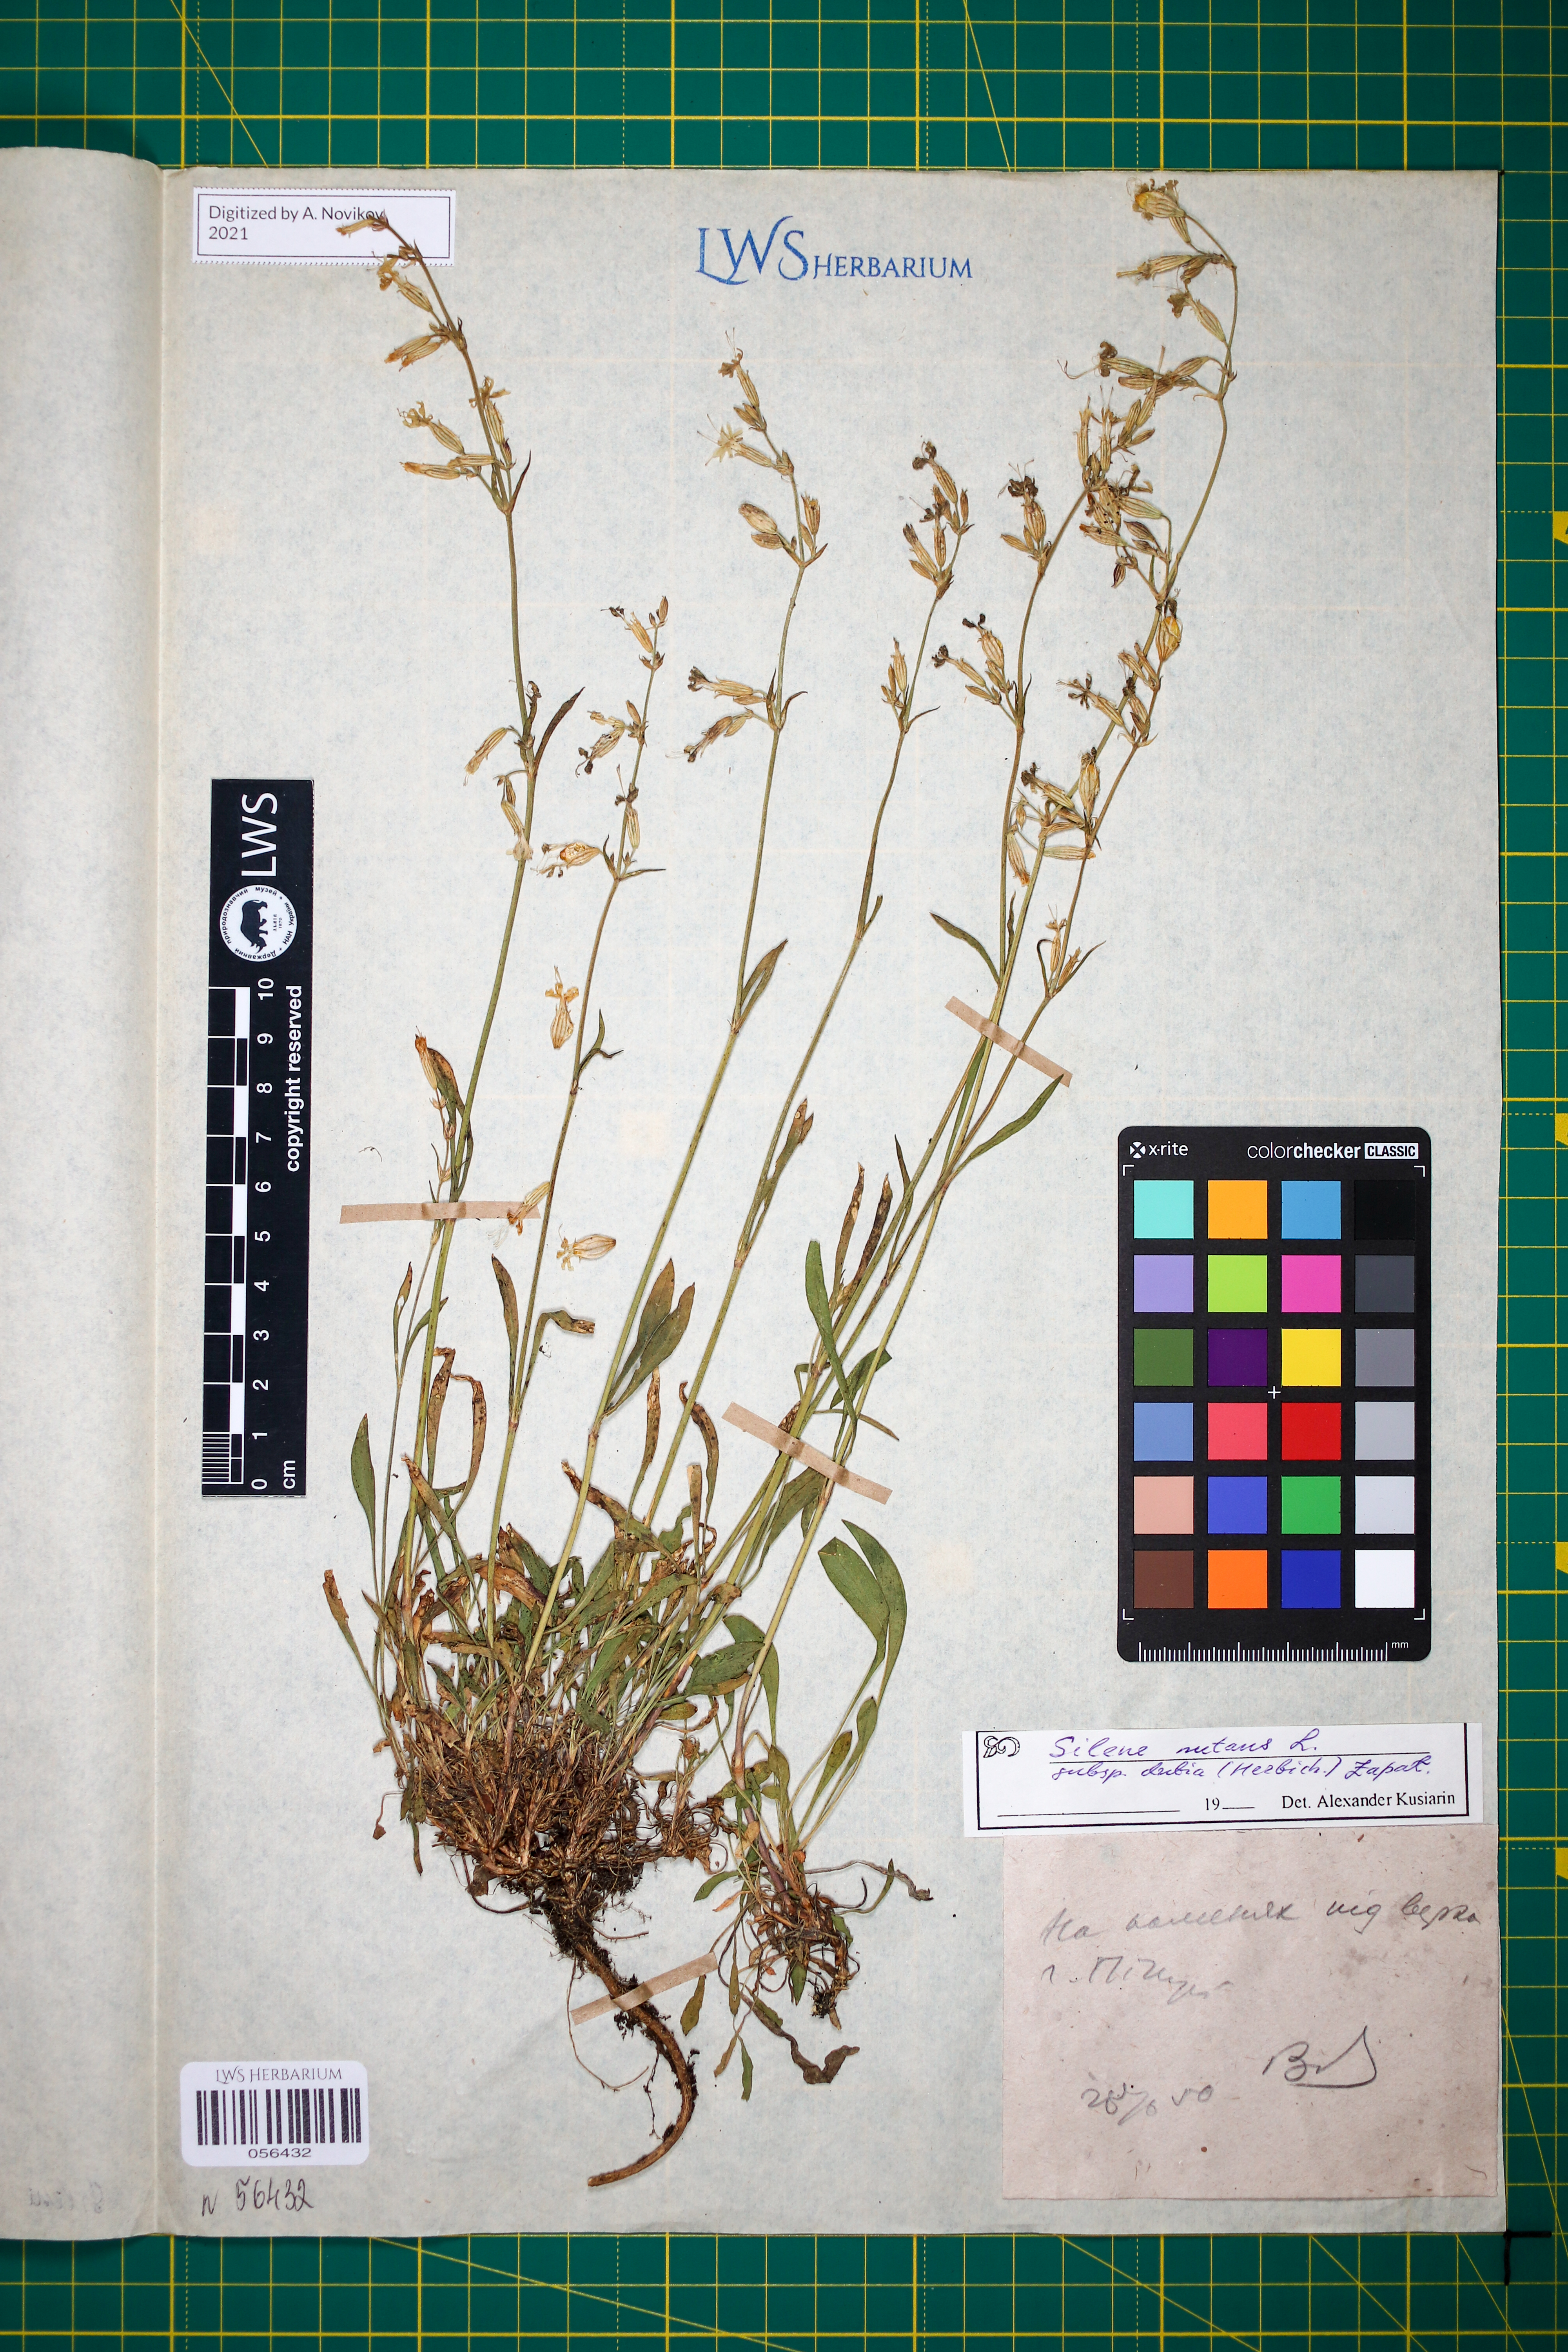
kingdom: Plantae
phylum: Tracheophyta
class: Magnoliopsida
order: Caryophyllales
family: Caryophyllaceae
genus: Silene
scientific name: Silene nutans
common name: Nottingham catchfly
